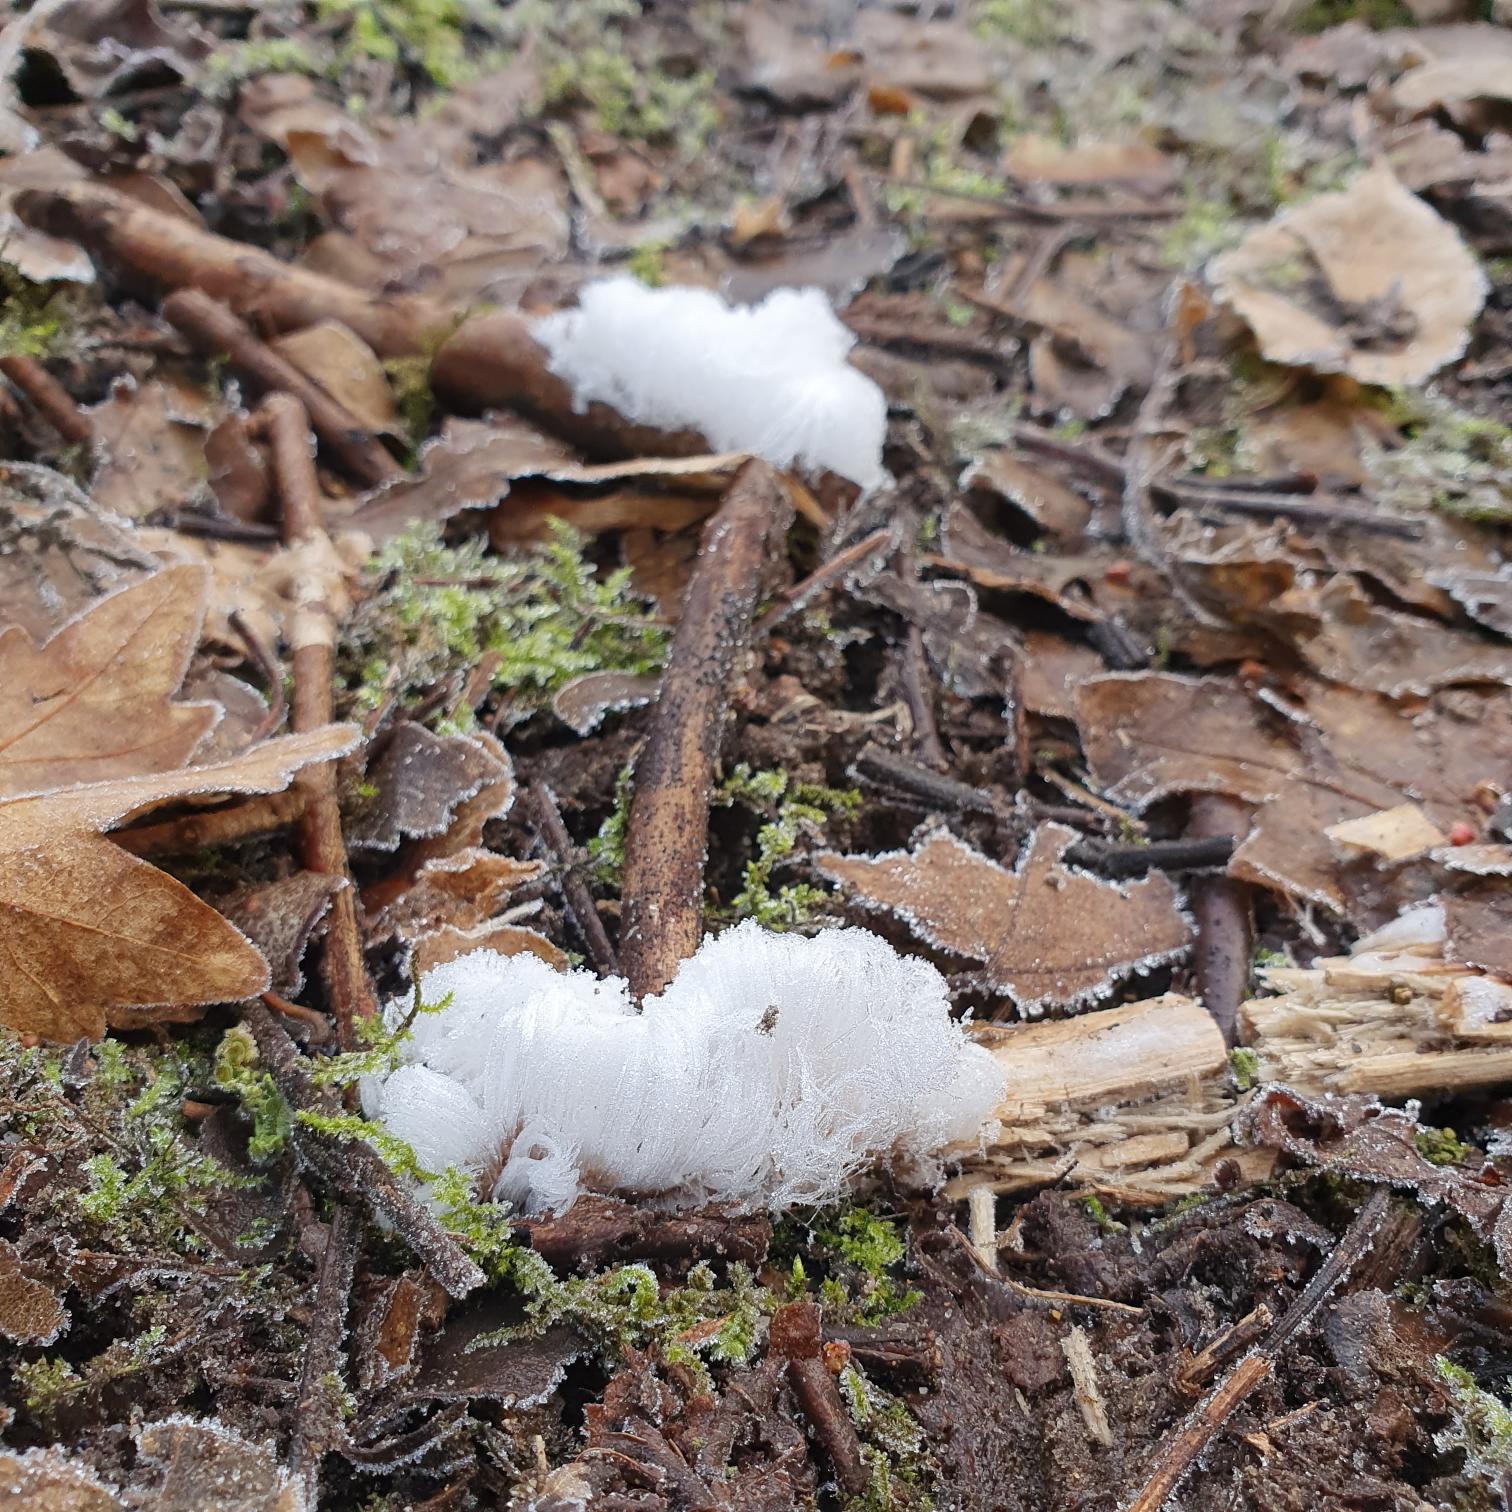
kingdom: Fungi
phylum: Basidiomycota
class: Tremellomycetes
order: Tremellales
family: Exidiaceae
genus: Exidiopsis
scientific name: Exidiopsis effusa
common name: Smuk bævrehinde
